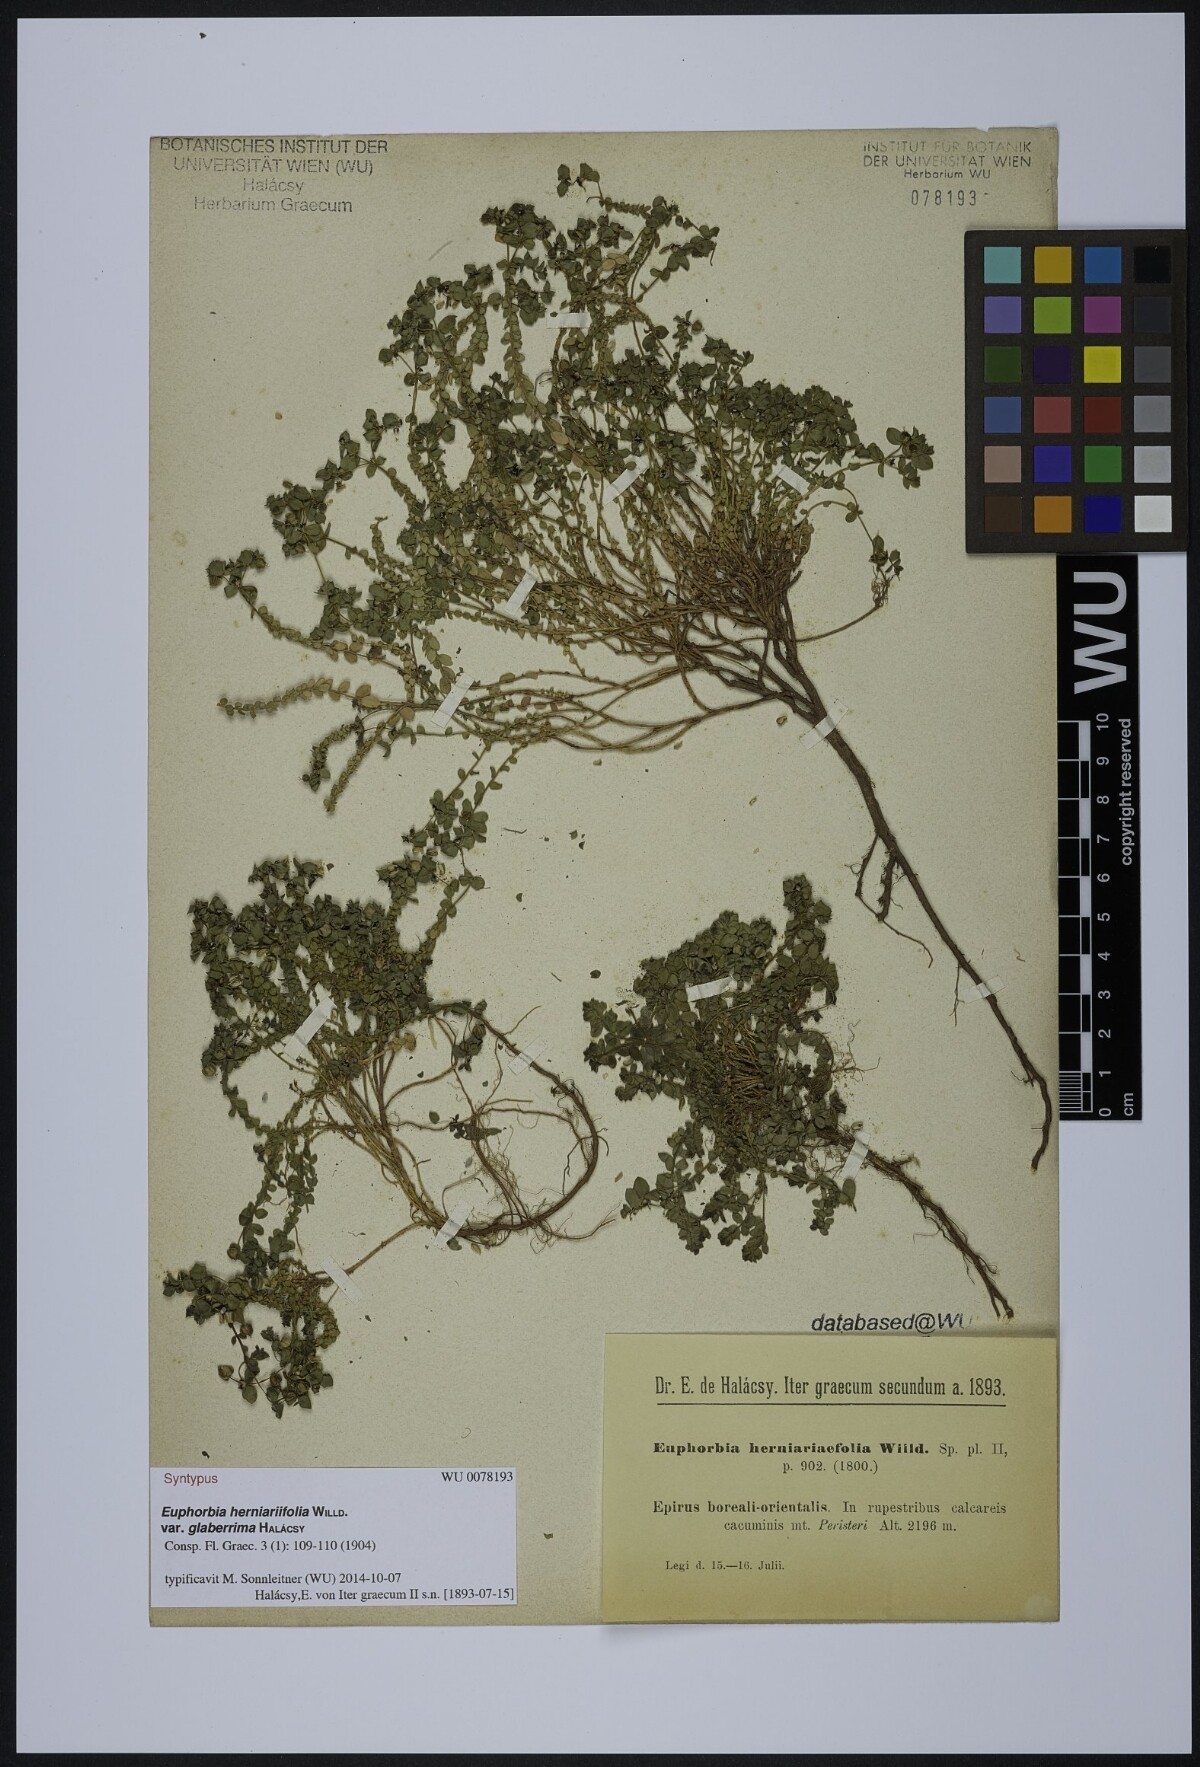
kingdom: Plantae
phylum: Tracheophyta
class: Magnoliopsida
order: Malpighiales
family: Euphorbiaceae
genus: Euphorbia
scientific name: Euphorbia herniariifolia
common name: Herniaria-leaf spurge
